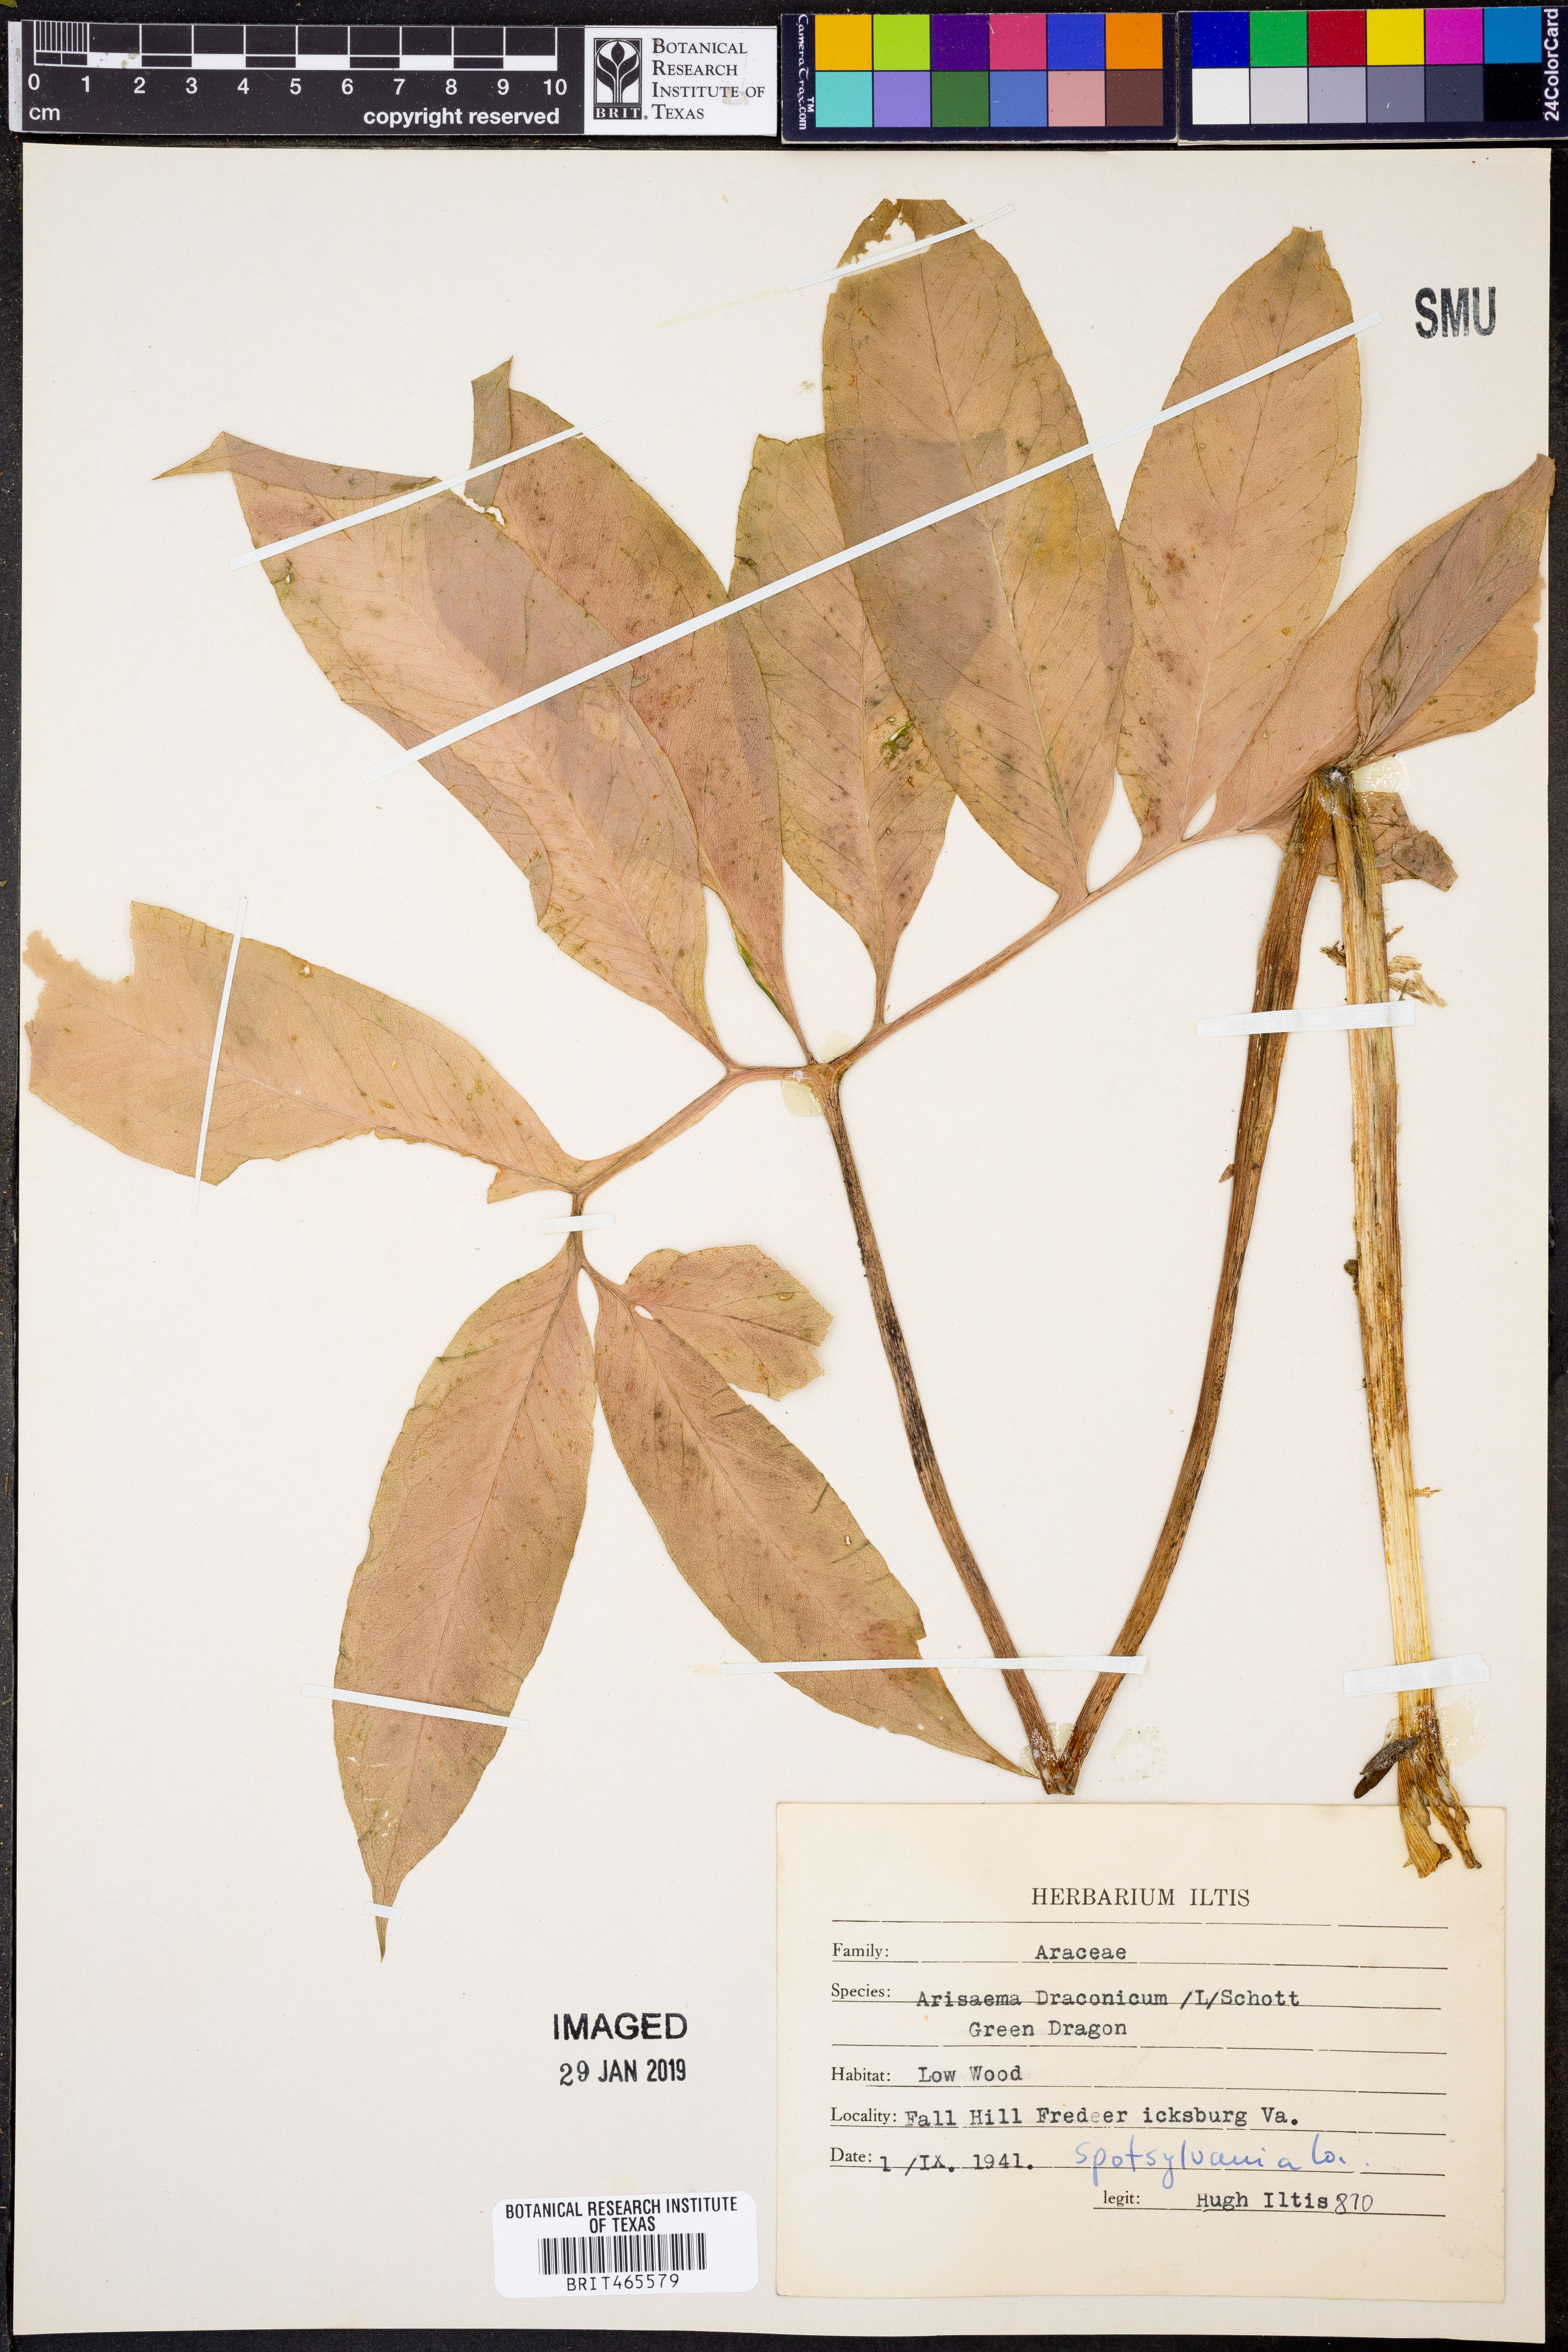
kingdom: Plantae
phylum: Tracheophyta
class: Liliopsida
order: Alismatales
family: Araceae
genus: Arisaema
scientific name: Arisaema dracontium
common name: Dragon-arum
